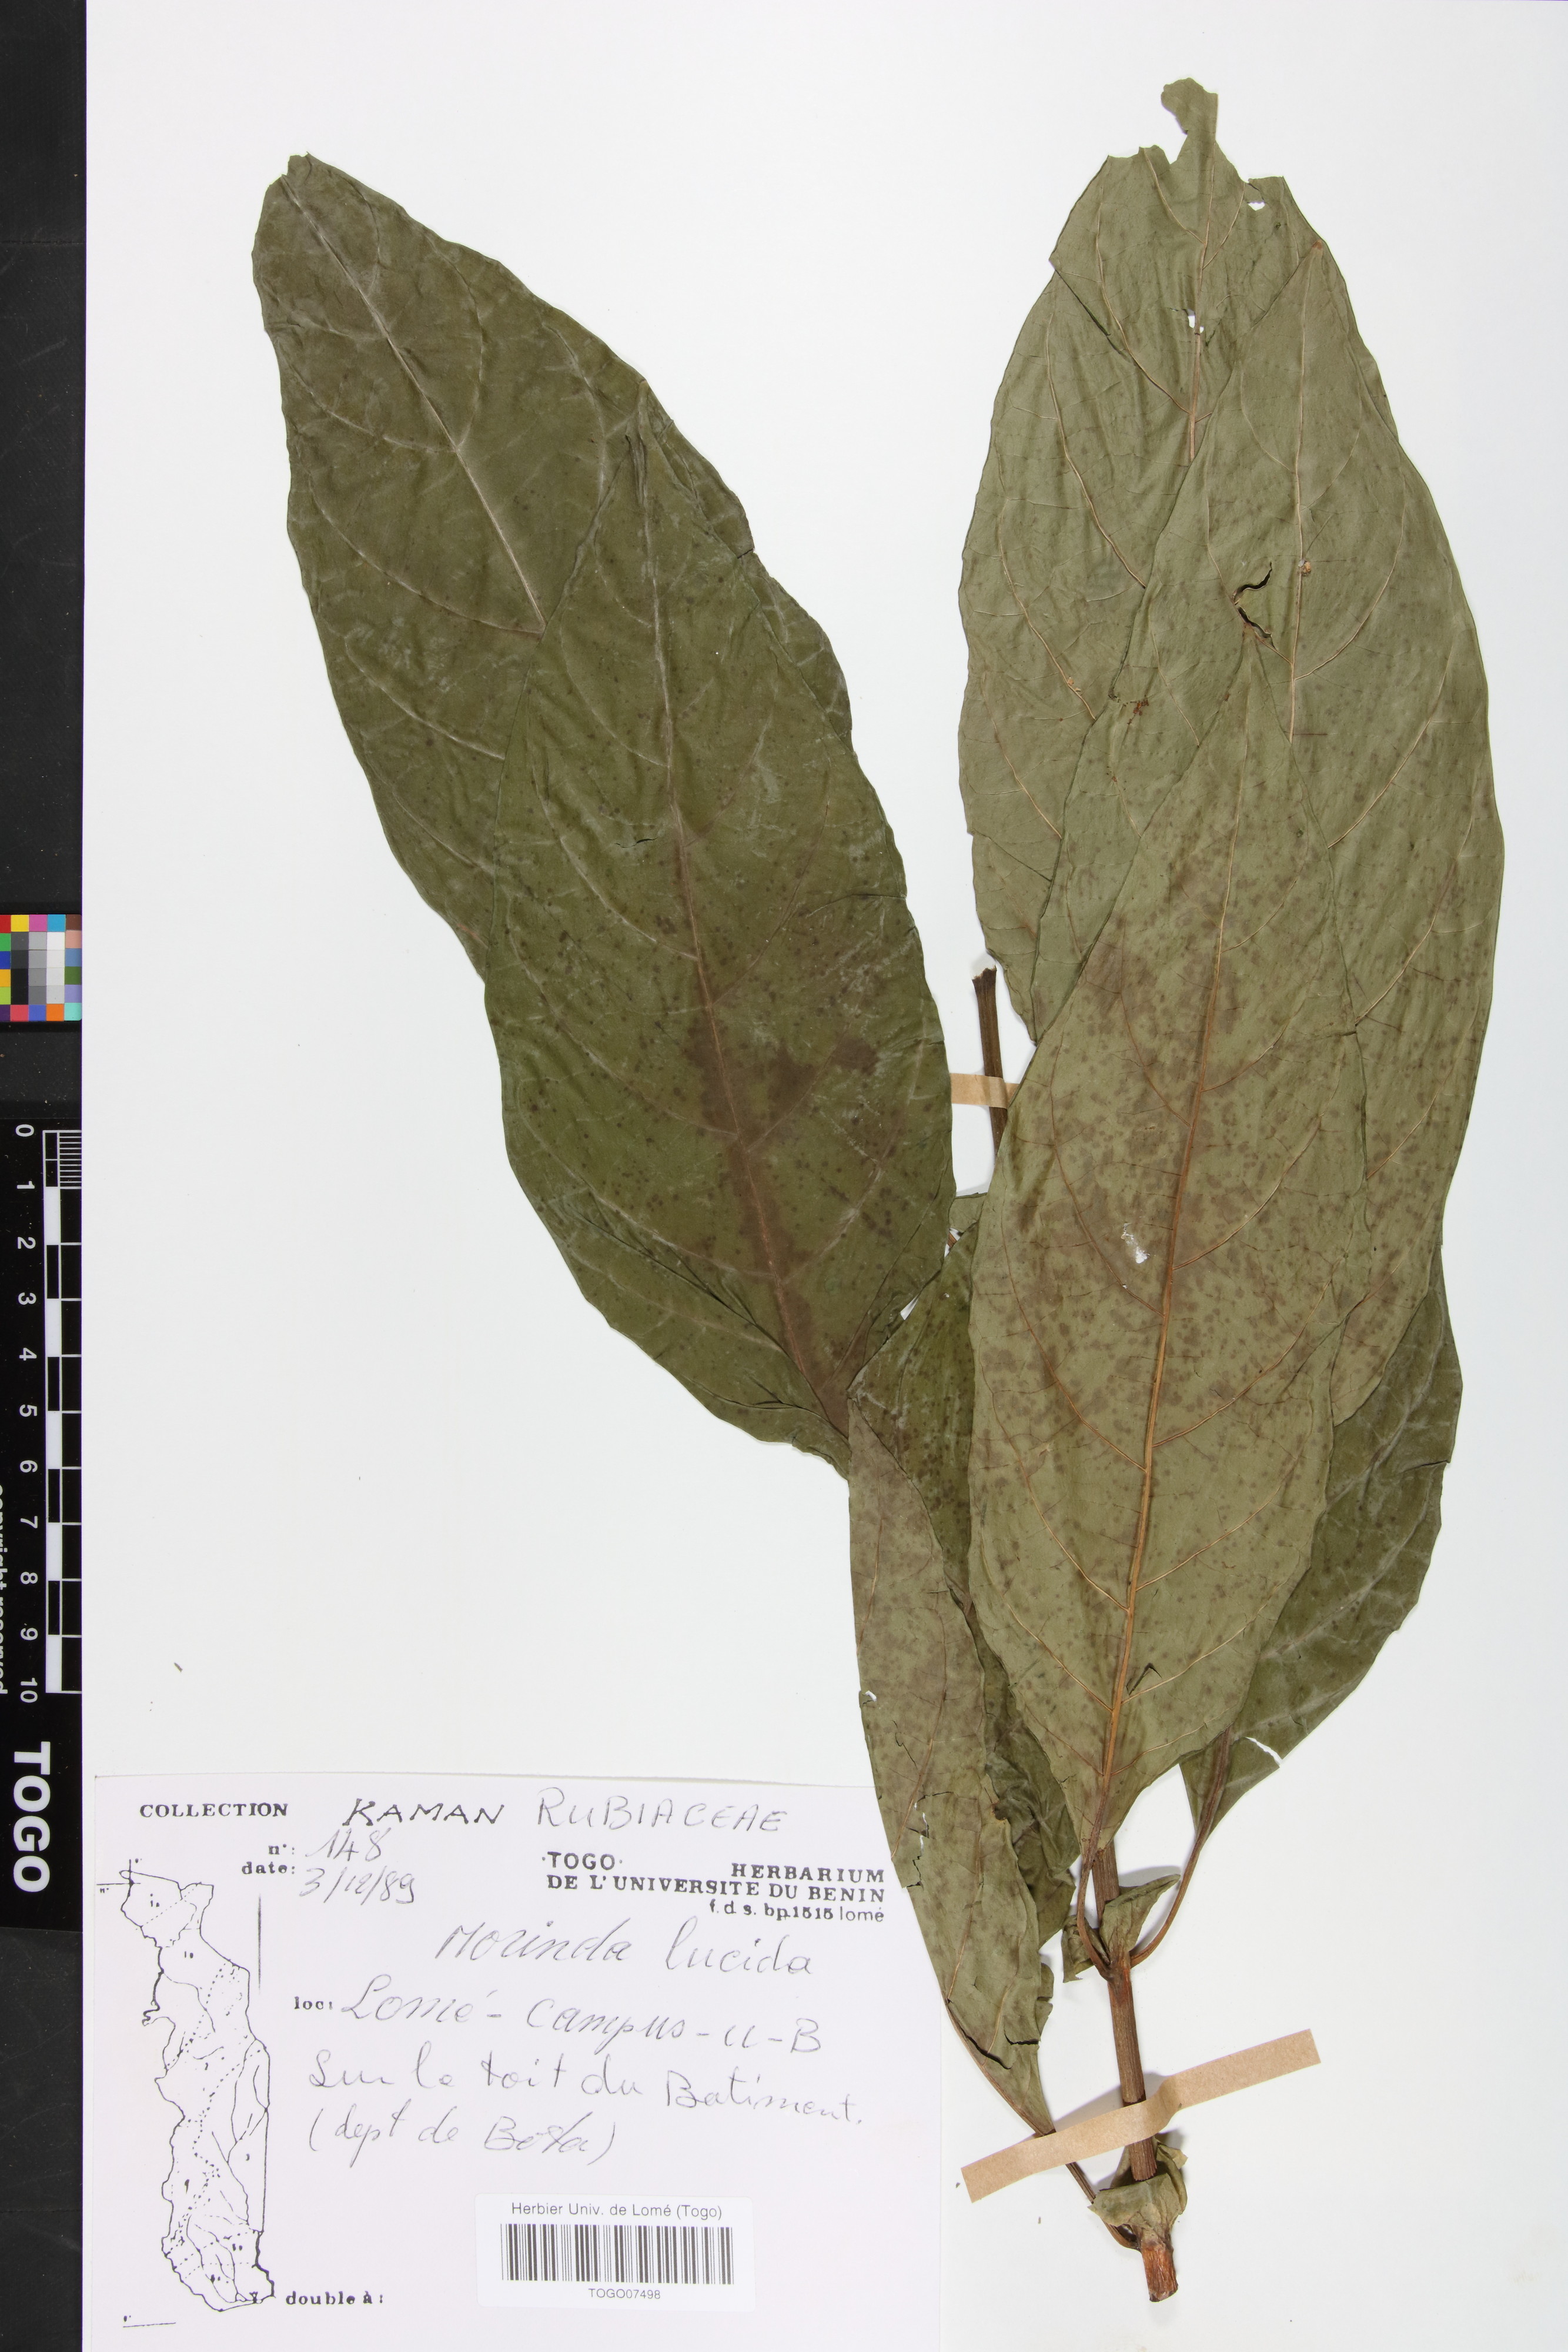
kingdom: Plantae
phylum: Tracheophyta
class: Magnoliopsida
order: Gentianales
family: Rubiaceae
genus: Morinda
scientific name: Morinda lucida
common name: Brimstonetree
